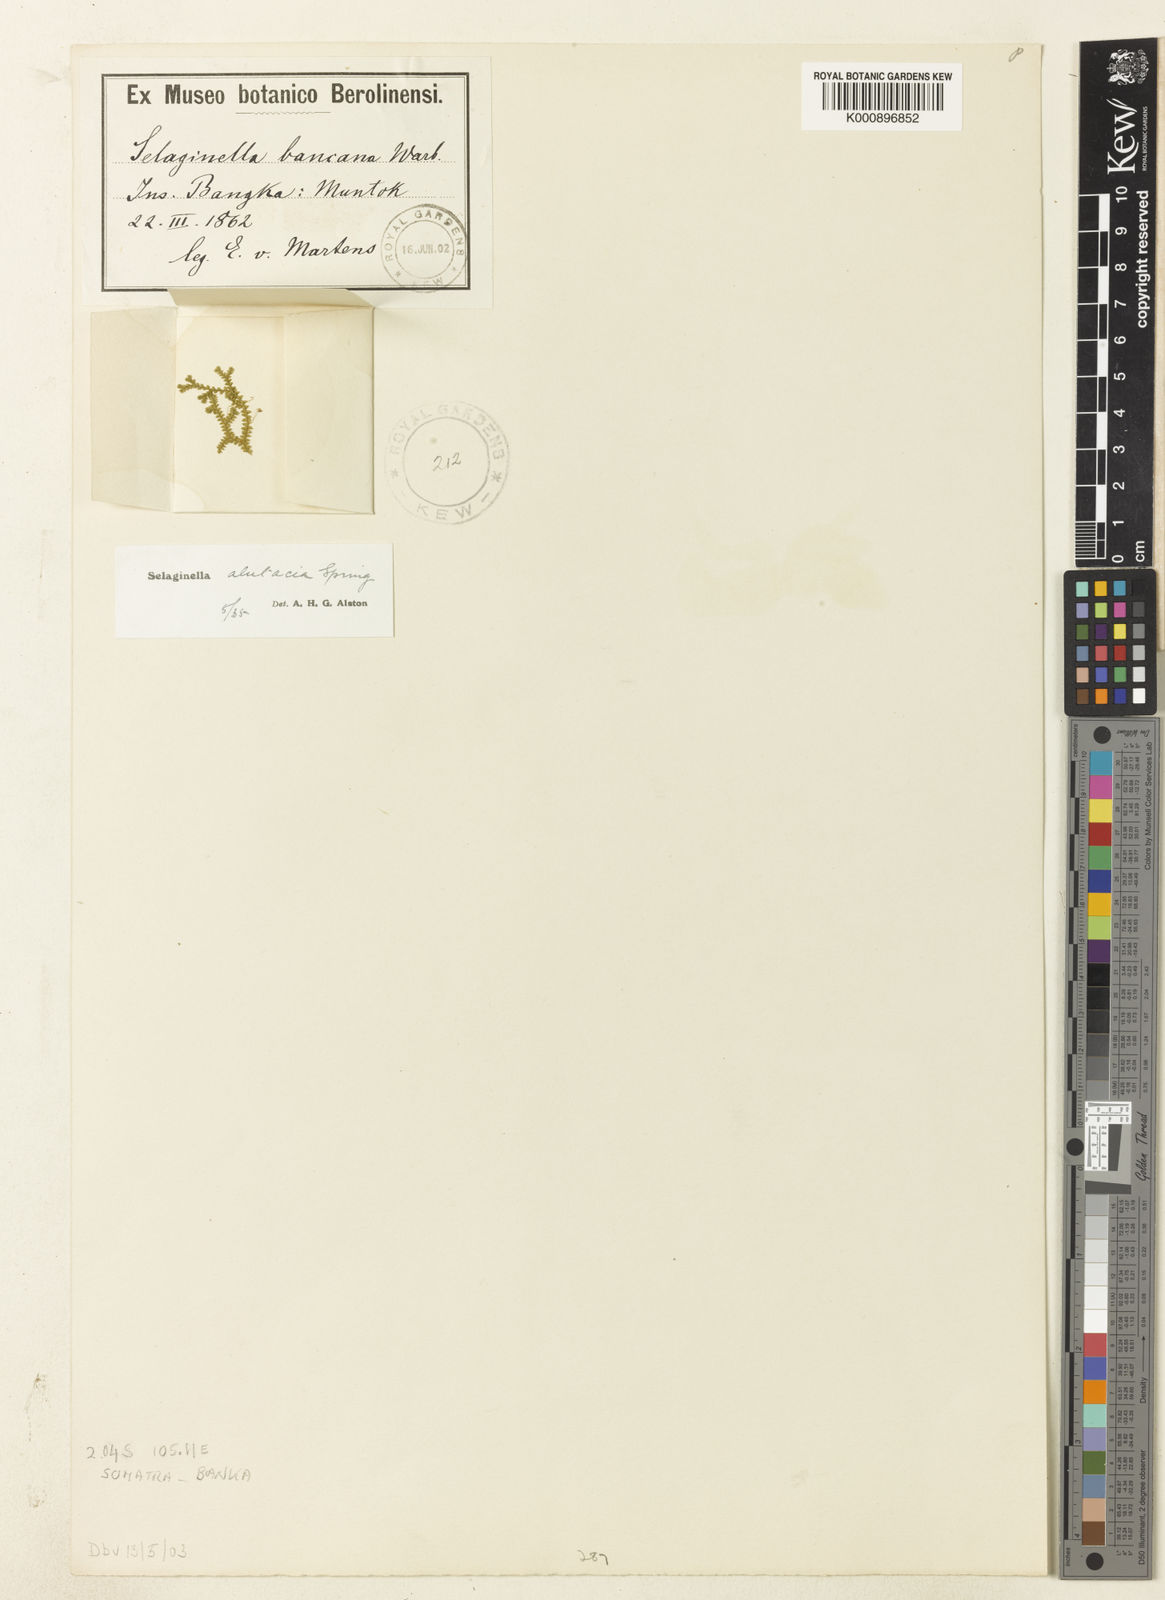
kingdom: Plantae
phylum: Tracheophyta
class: Lycopodiopsida
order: Selaginellales
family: Selaginellaceae
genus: Selaginella
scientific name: Selaginella alutacea
